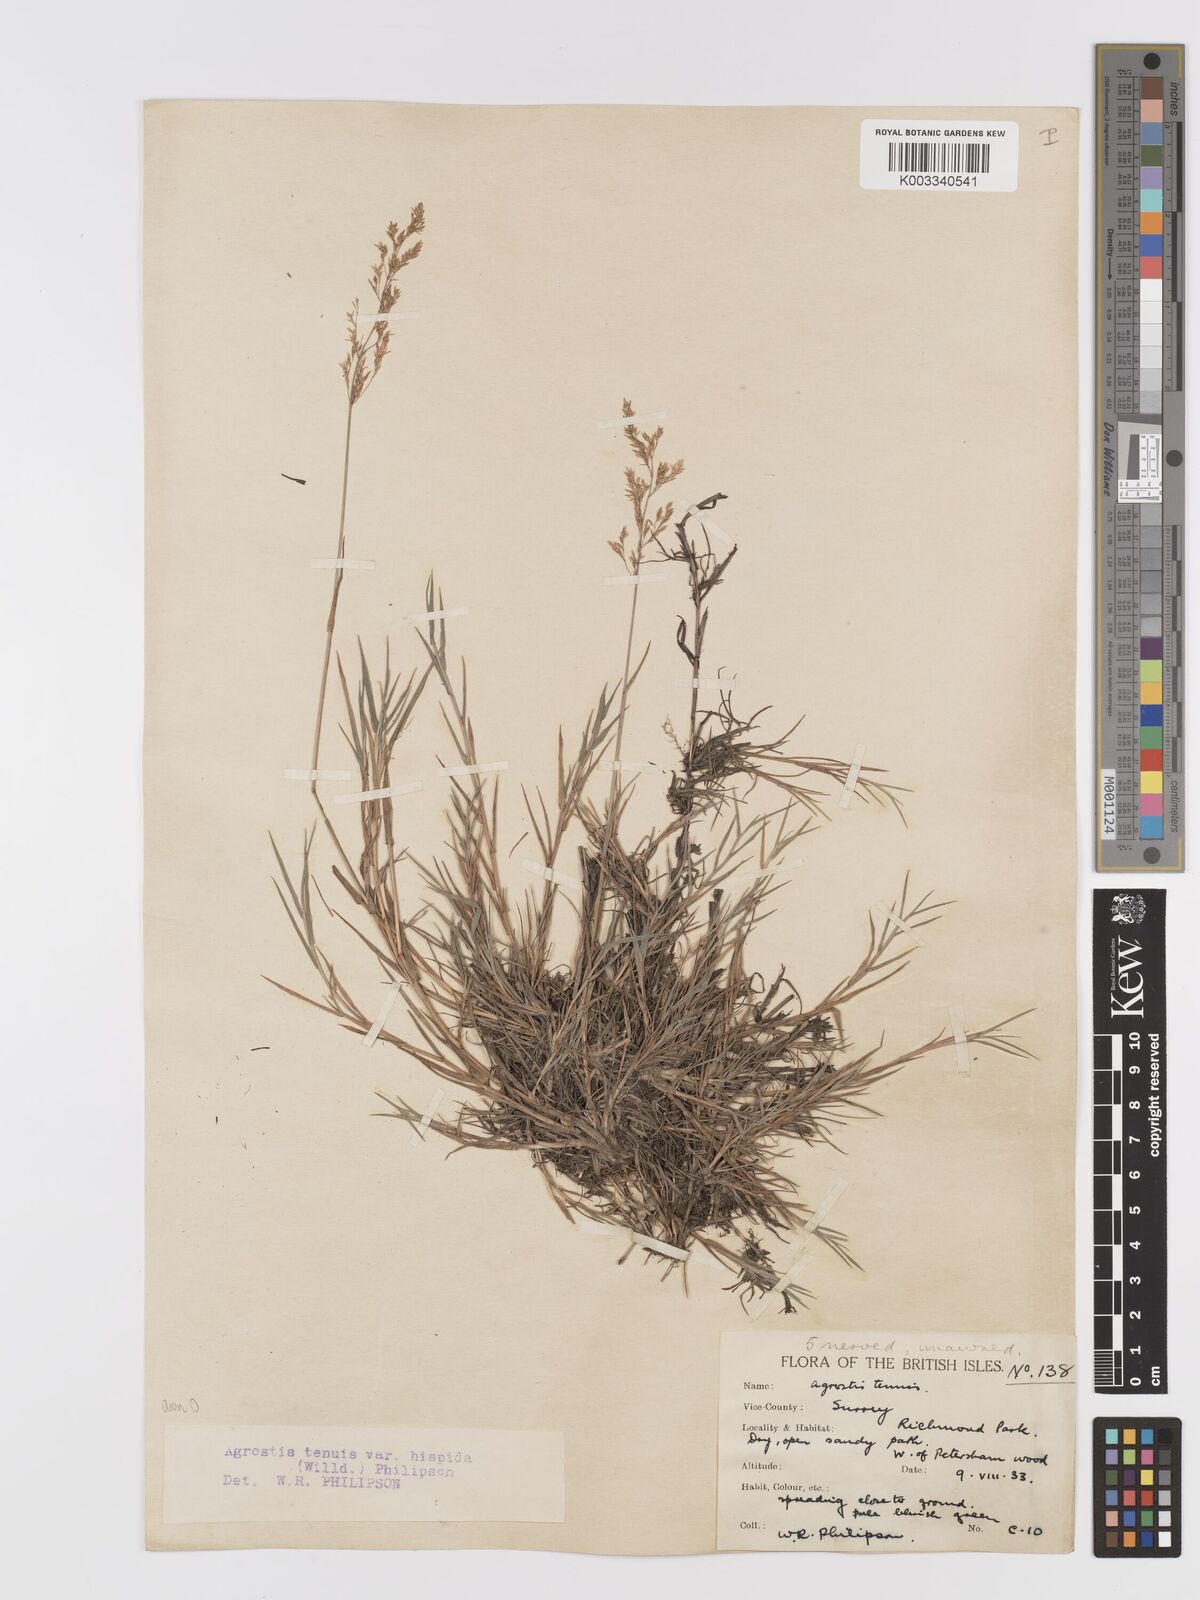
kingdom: Plantae
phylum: Tracheophyta
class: Liliopsida
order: Poales
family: Poaceae
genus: Agrostis
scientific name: Agrostis capillaris
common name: Colonial bentgrass
